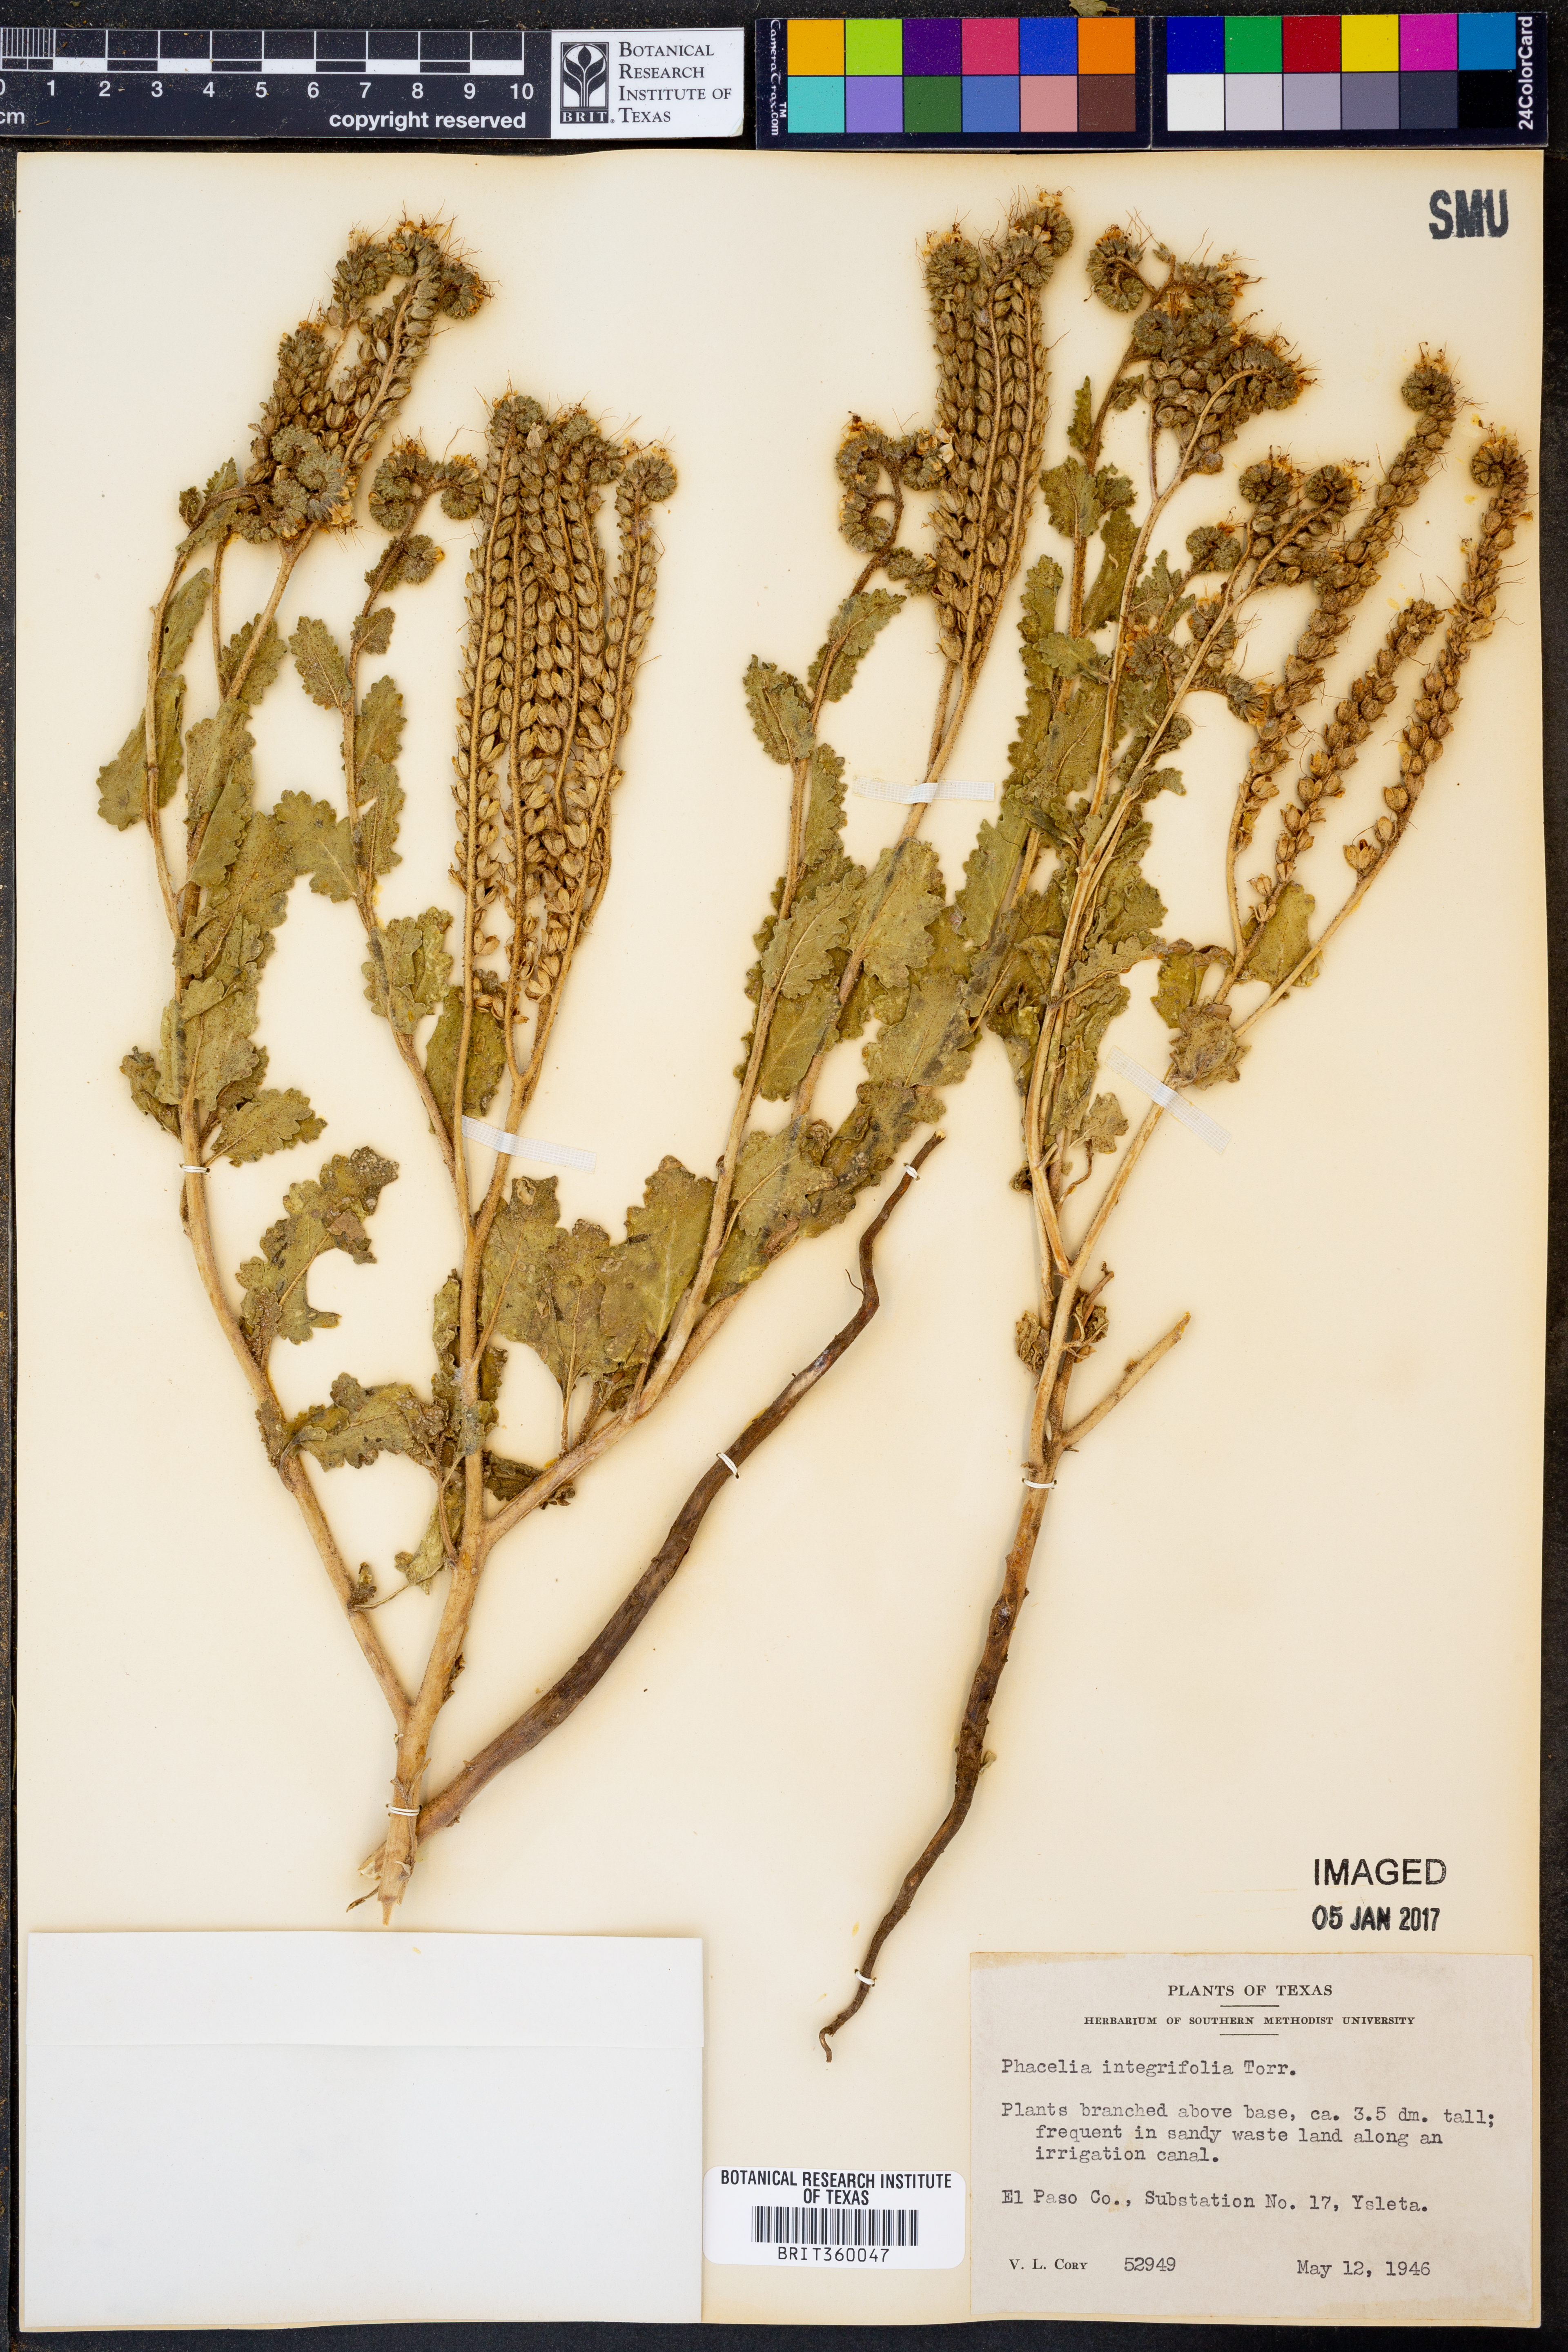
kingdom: Plantae
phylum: Tracheophyta
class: Magnoliopsida
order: Boraginales
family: Hydrophyllaceae
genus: Phacelia
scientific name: Phacelia integrifolia
